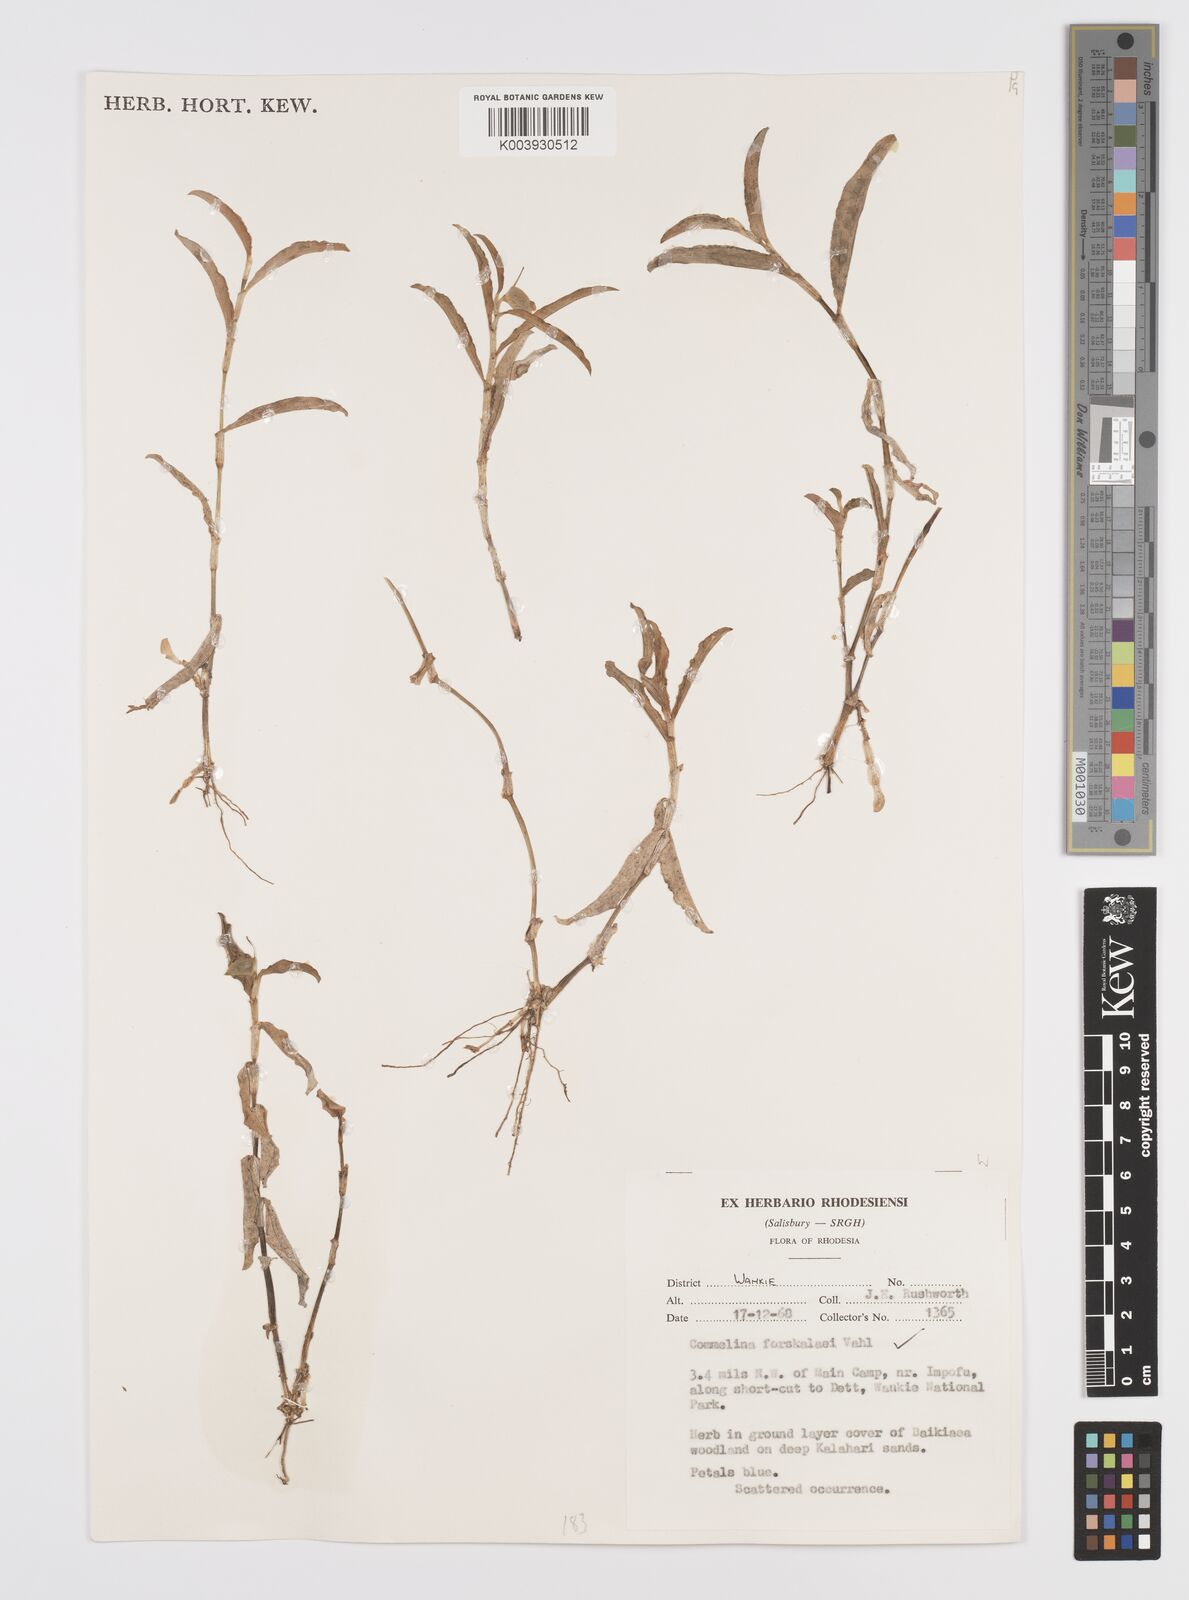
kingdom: Plantae
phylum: Tracheophyta
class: Liliopsida
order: Commelinales
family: Commelinaceae
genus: Commelina
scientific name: Commelina forskaolii
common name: Rat's ear
